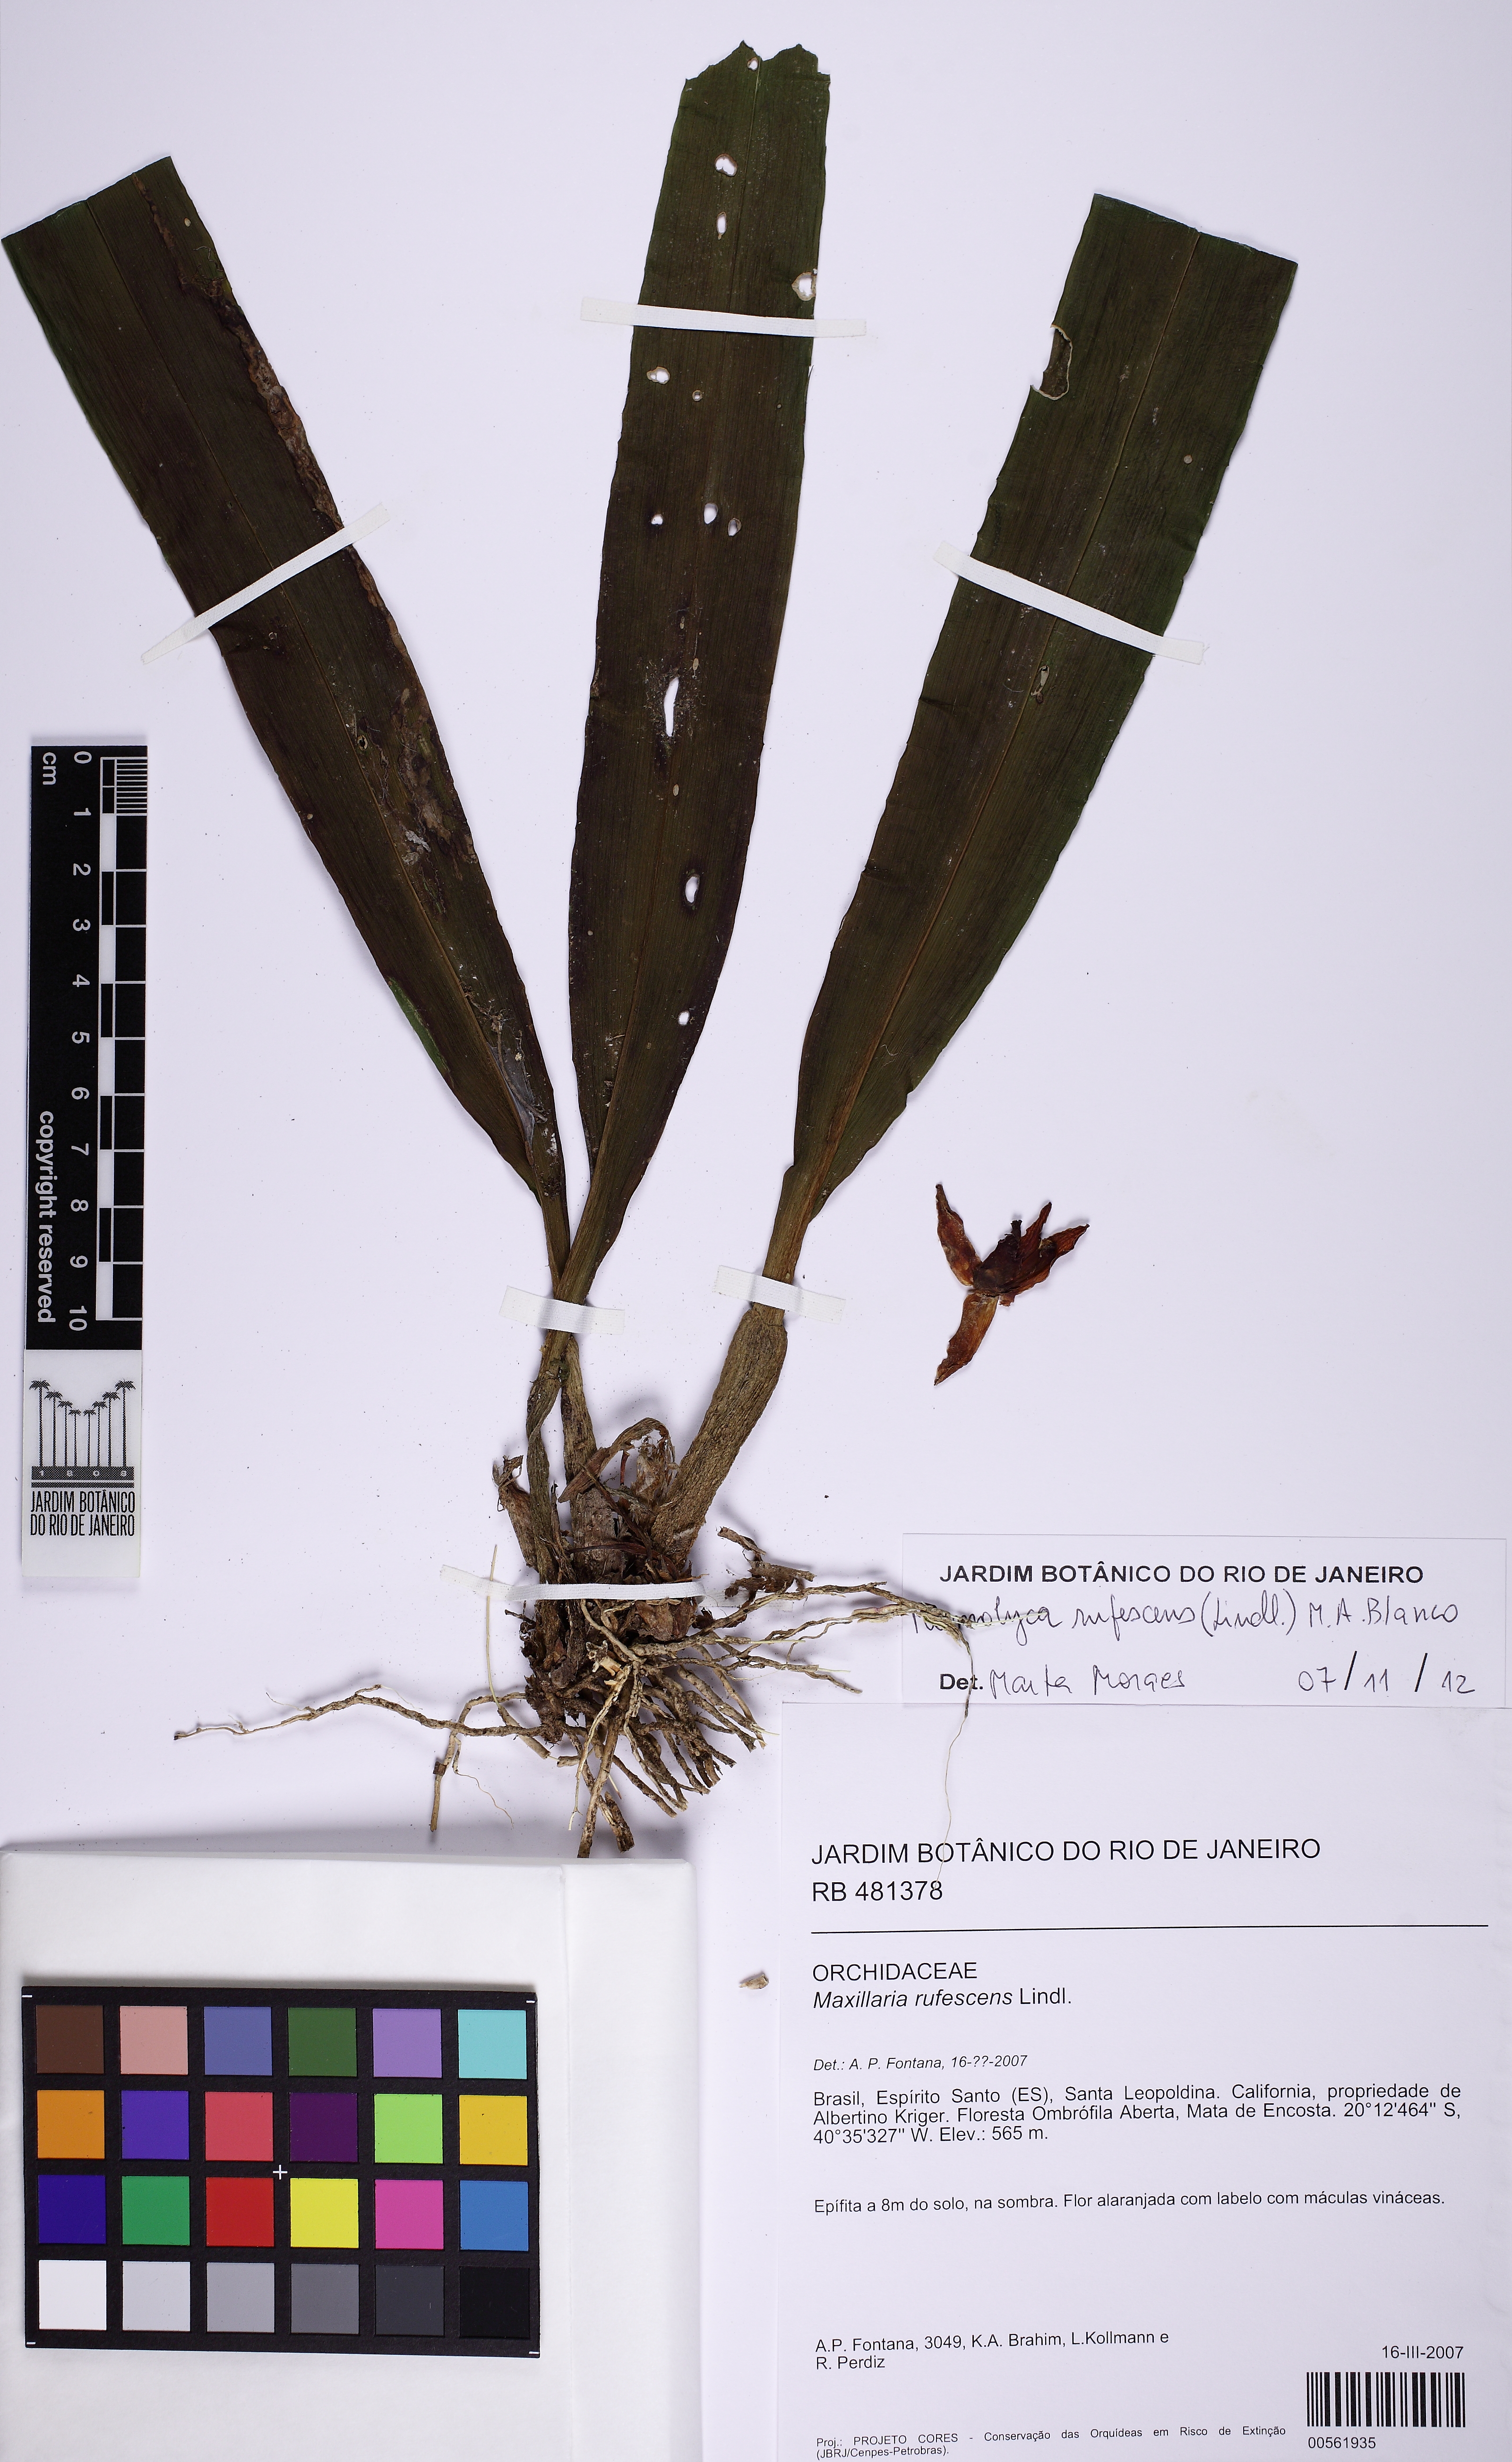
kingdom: Plantae
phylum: Tracheophyta
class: Liliopsida
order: Asparagales
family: Orchidaceae
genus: Maxillaria
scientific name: Maxillaria rufescens
